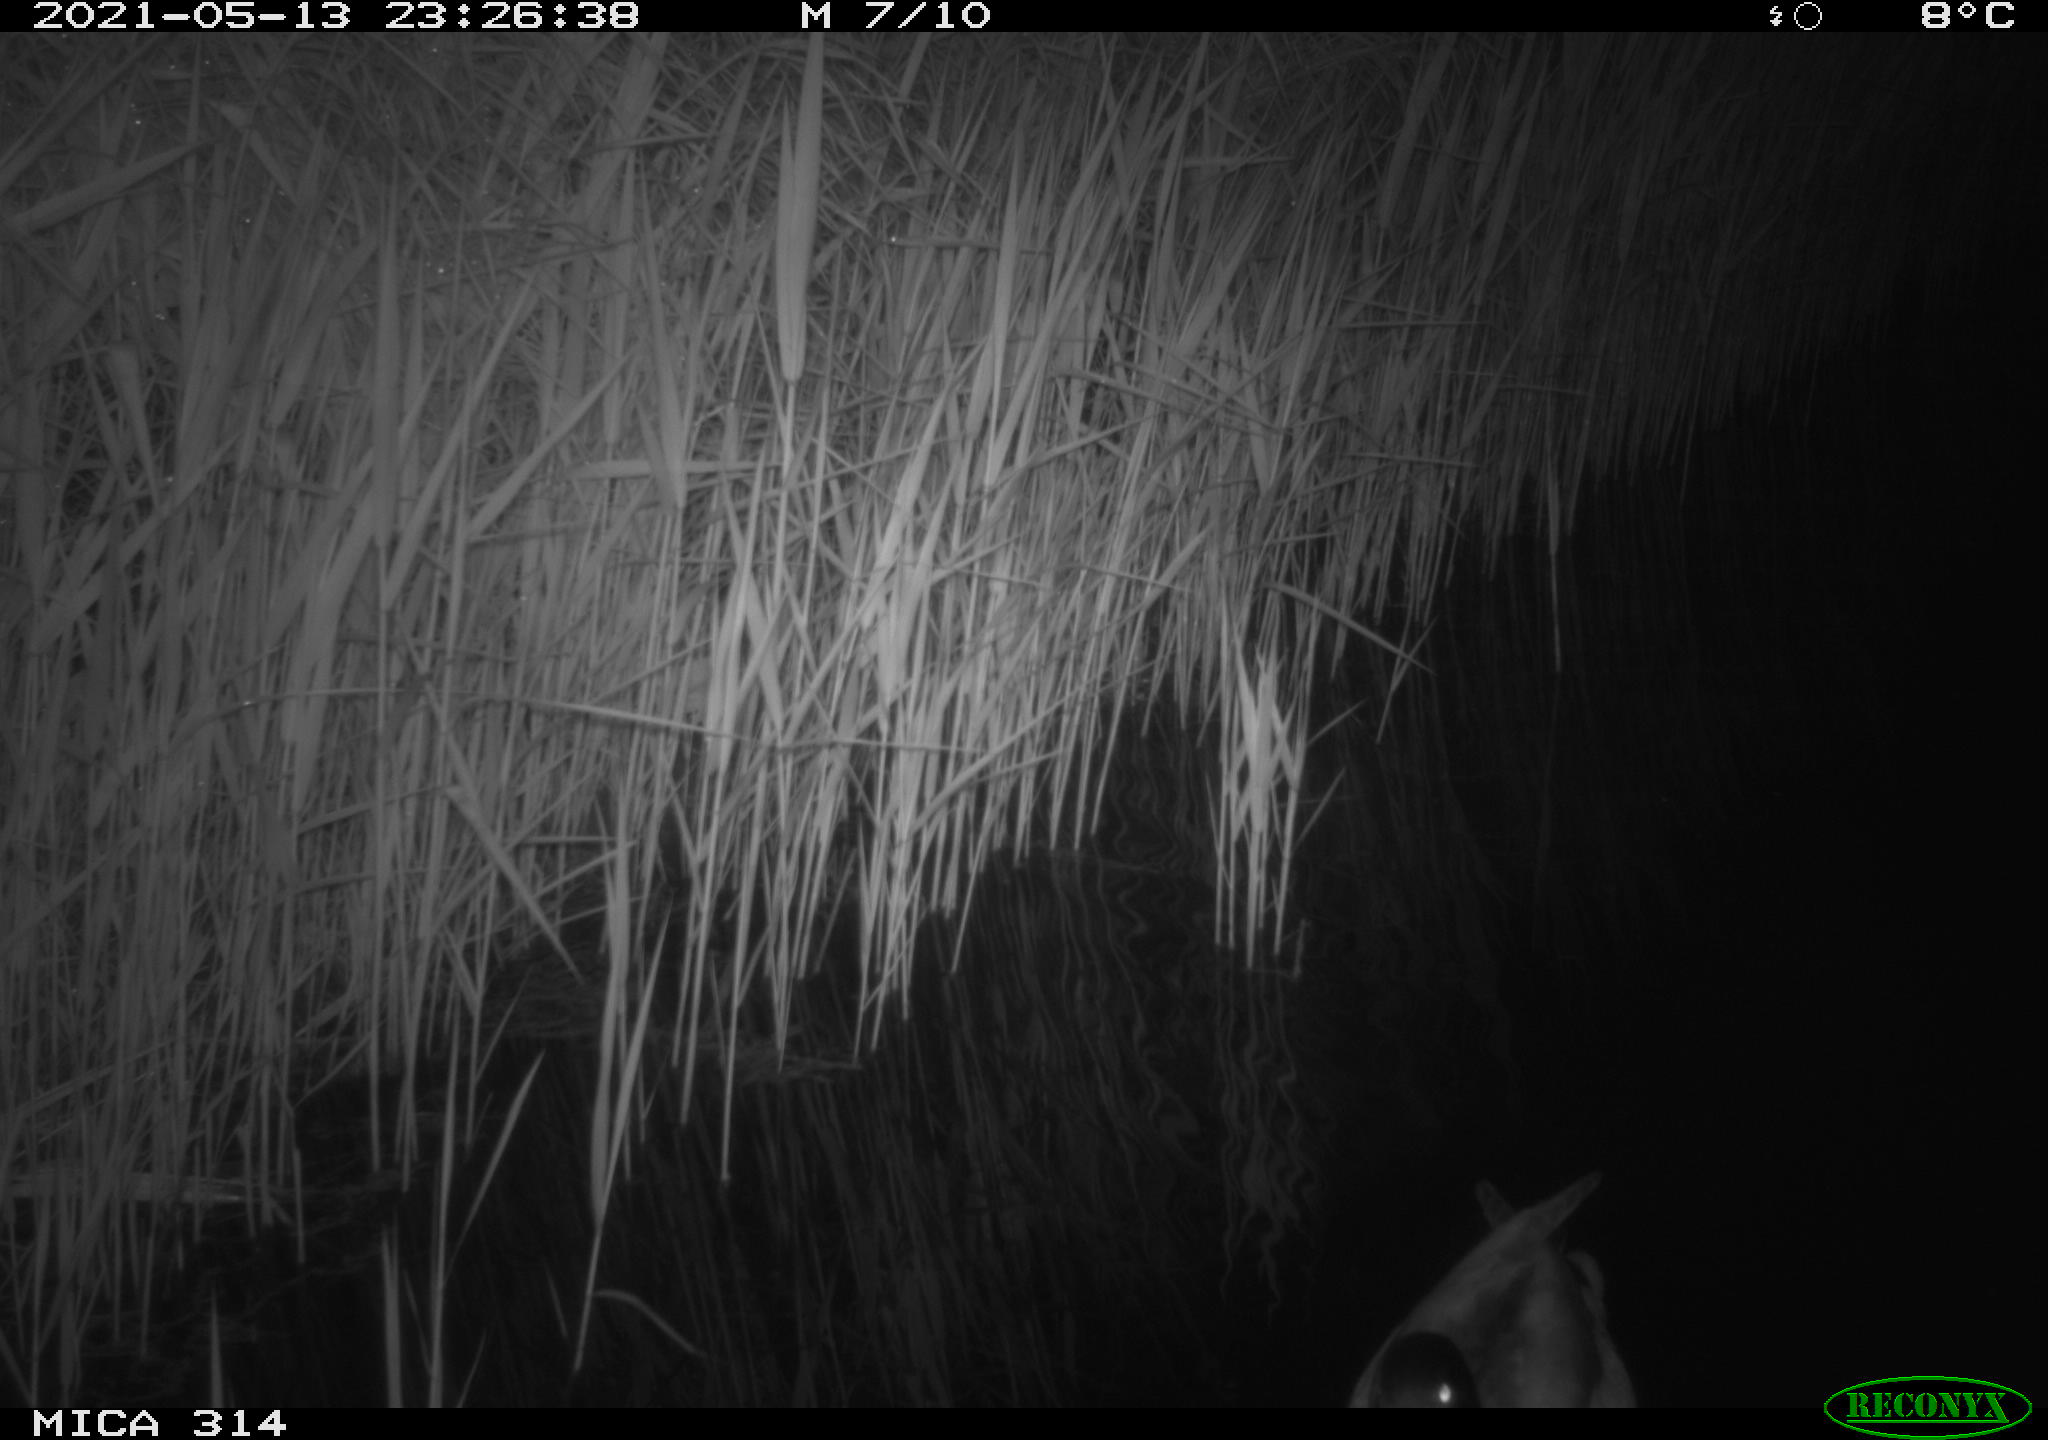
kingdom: Animalia
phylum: Chordata
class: Aves
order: Anseriformes
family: Anatidae
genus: Anas
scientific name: Anas platyrhynchos
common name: Mallard
